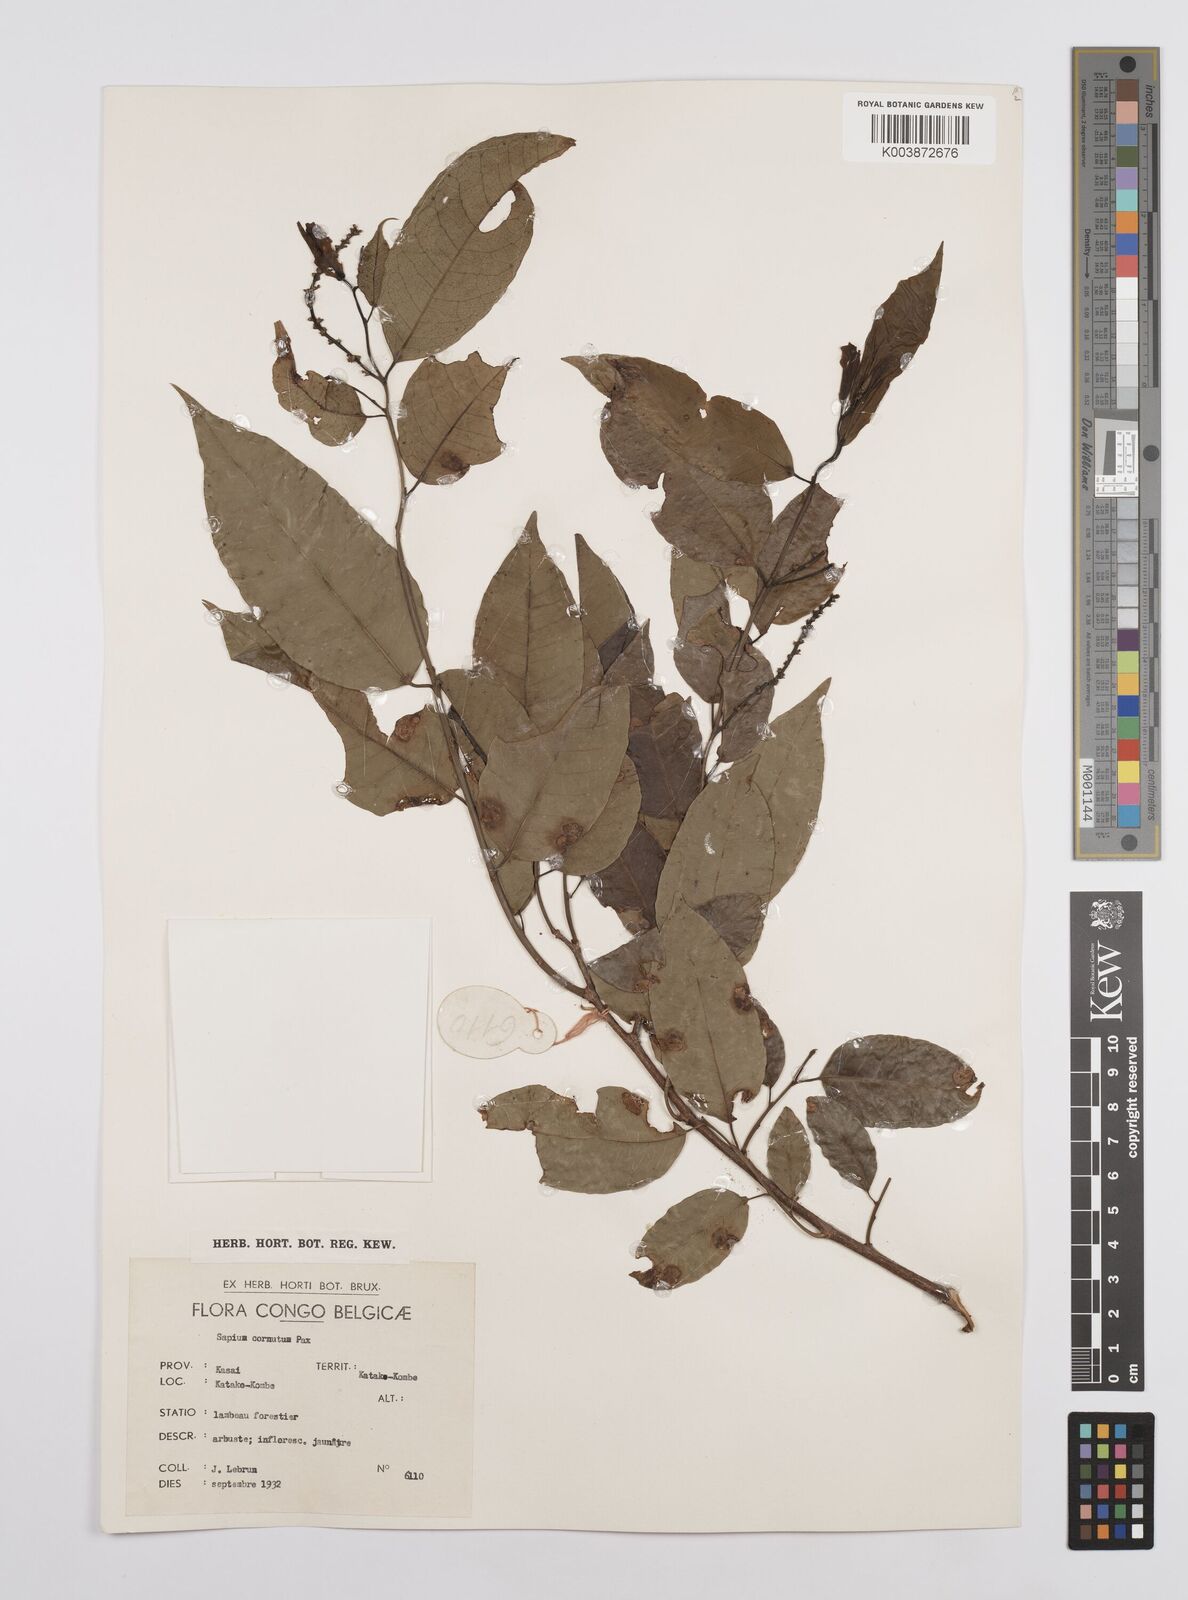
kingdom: Plantae
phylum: Tracheophyta
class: Magnoliopsida
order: Malpighiales
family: Euphorbiaceae
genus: Sclerocroton
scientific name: Sclerocroton cornutus
